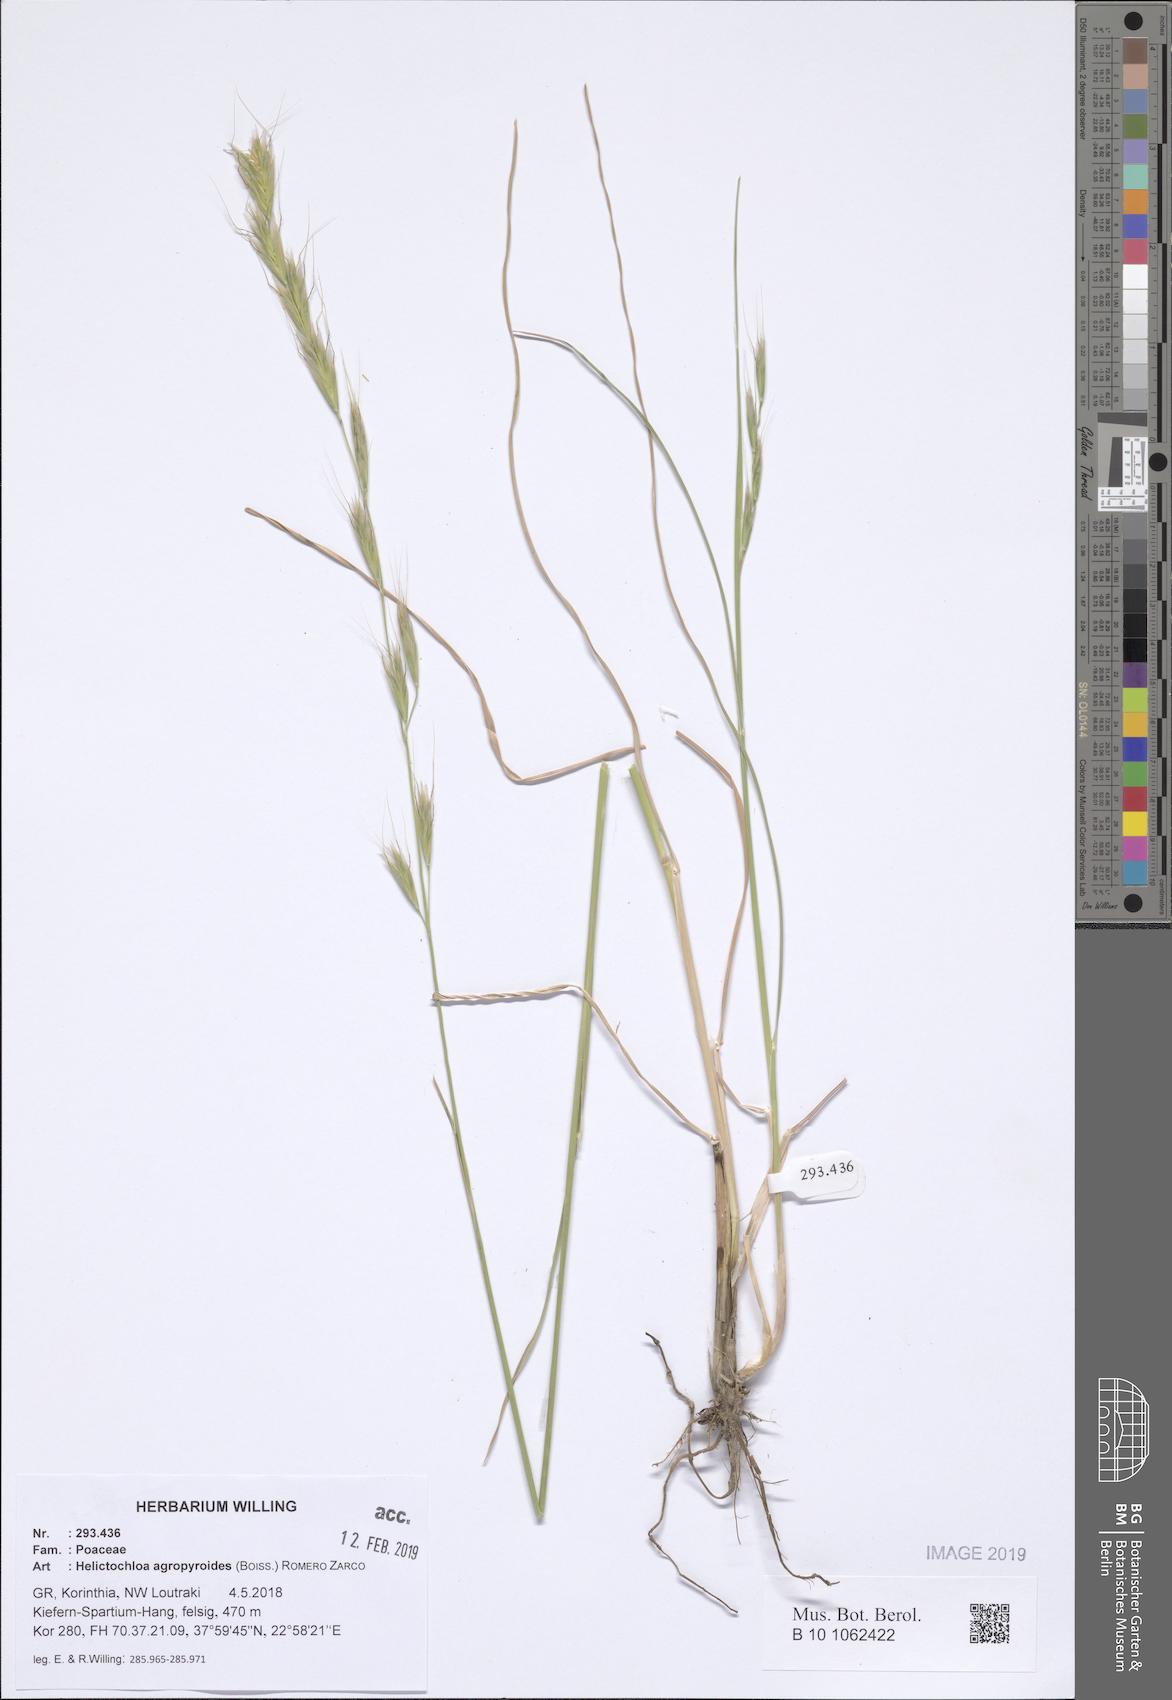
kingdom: Plantae
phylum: Tracheophyta
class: Liliopsida
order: Poales
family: Poaceae
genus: Helictochloa
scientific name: Helictochloa agropyroides
